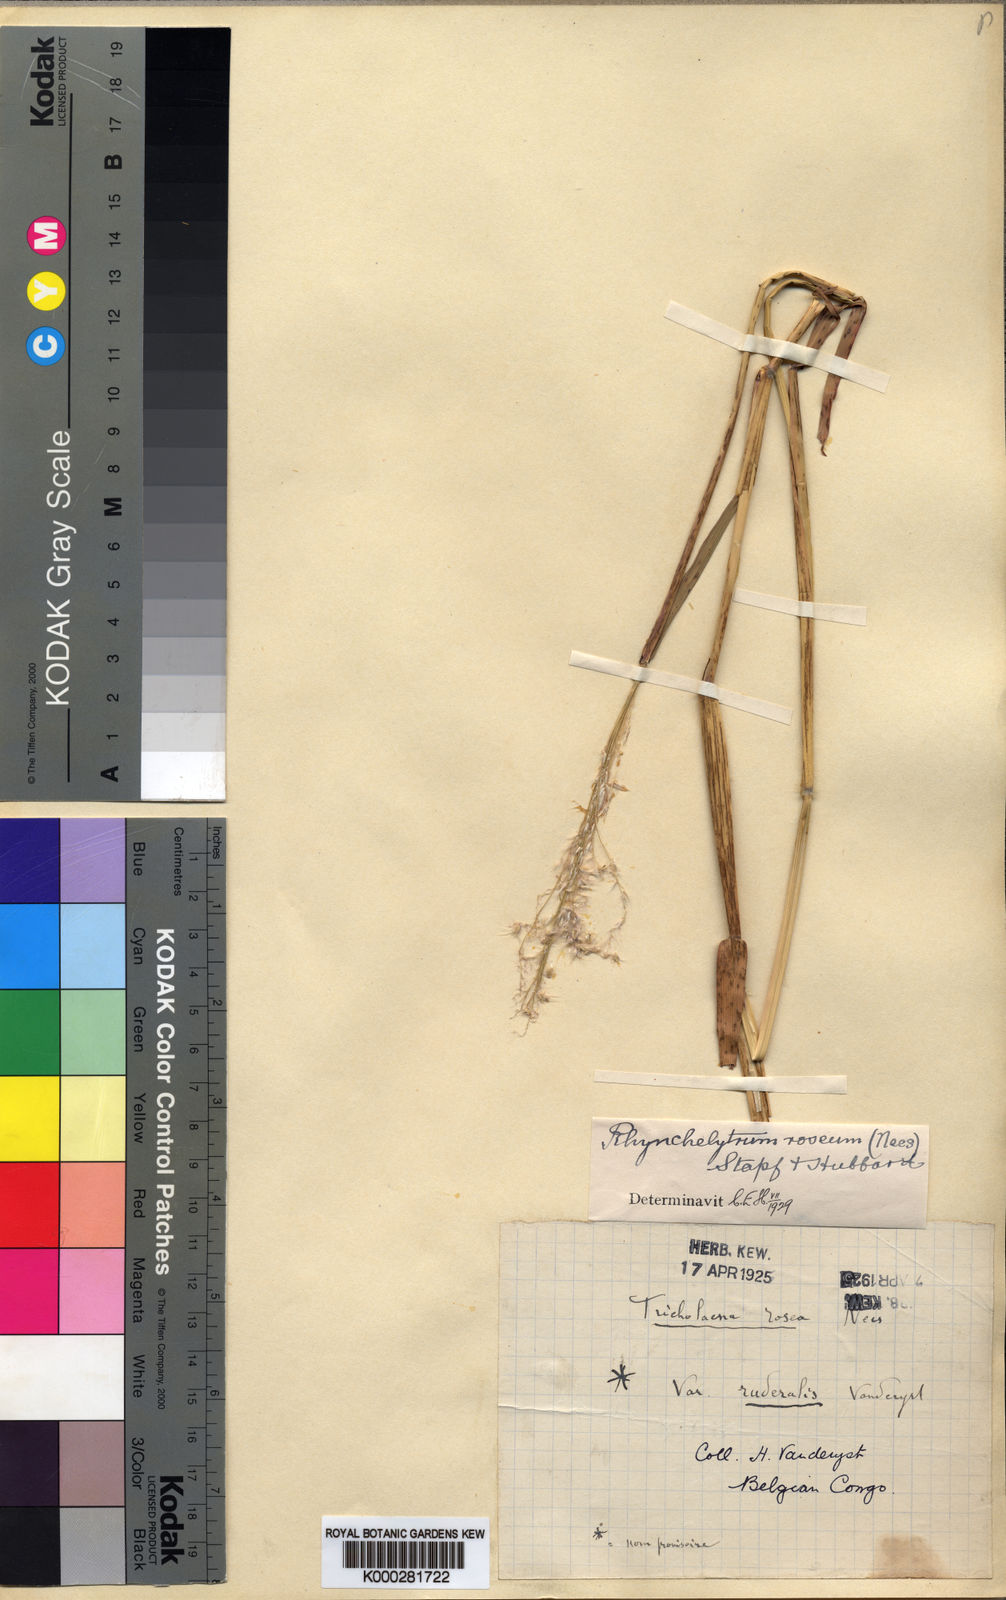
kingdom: Plantae
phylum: Tracheophyta
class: Liliopsida
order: Poales
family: Poaceae
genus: Melinis
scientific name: Melinis repens
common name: Rose natal grass
